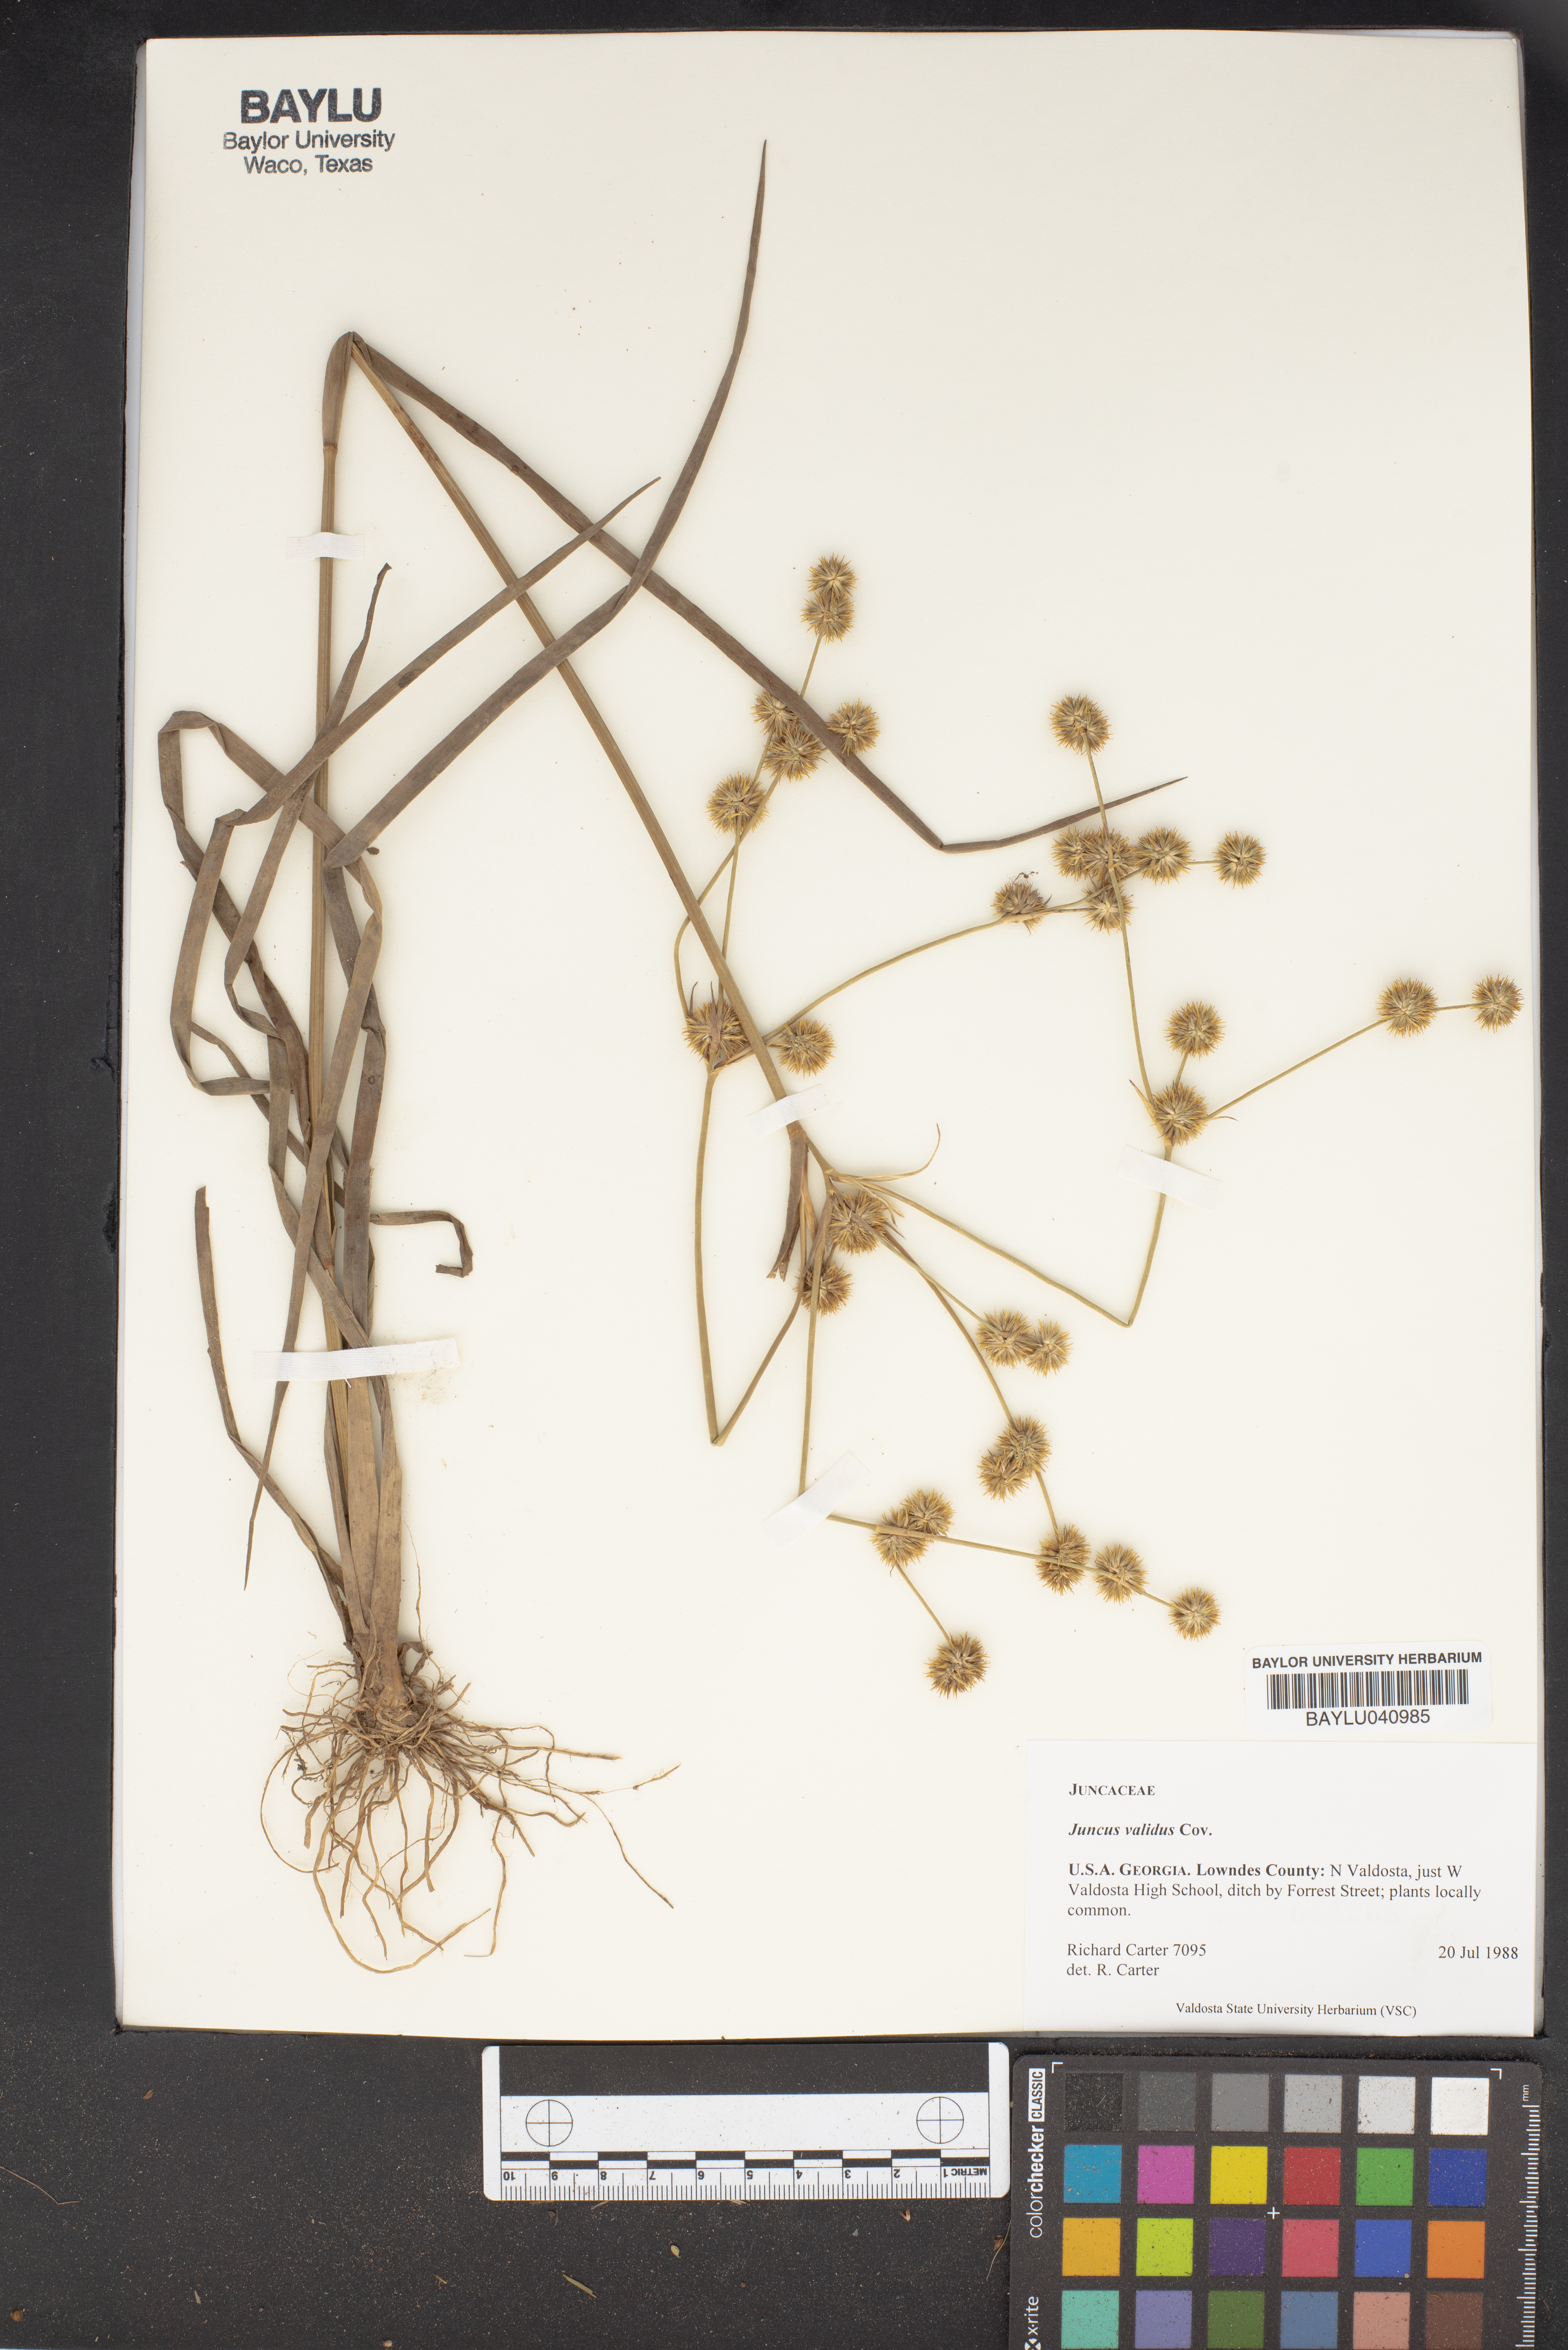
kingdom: Plantae
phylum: Tracheophyta
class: Liliopsida
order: Poales
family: Juncaceae
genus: Juncus
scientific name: Juncus validus
